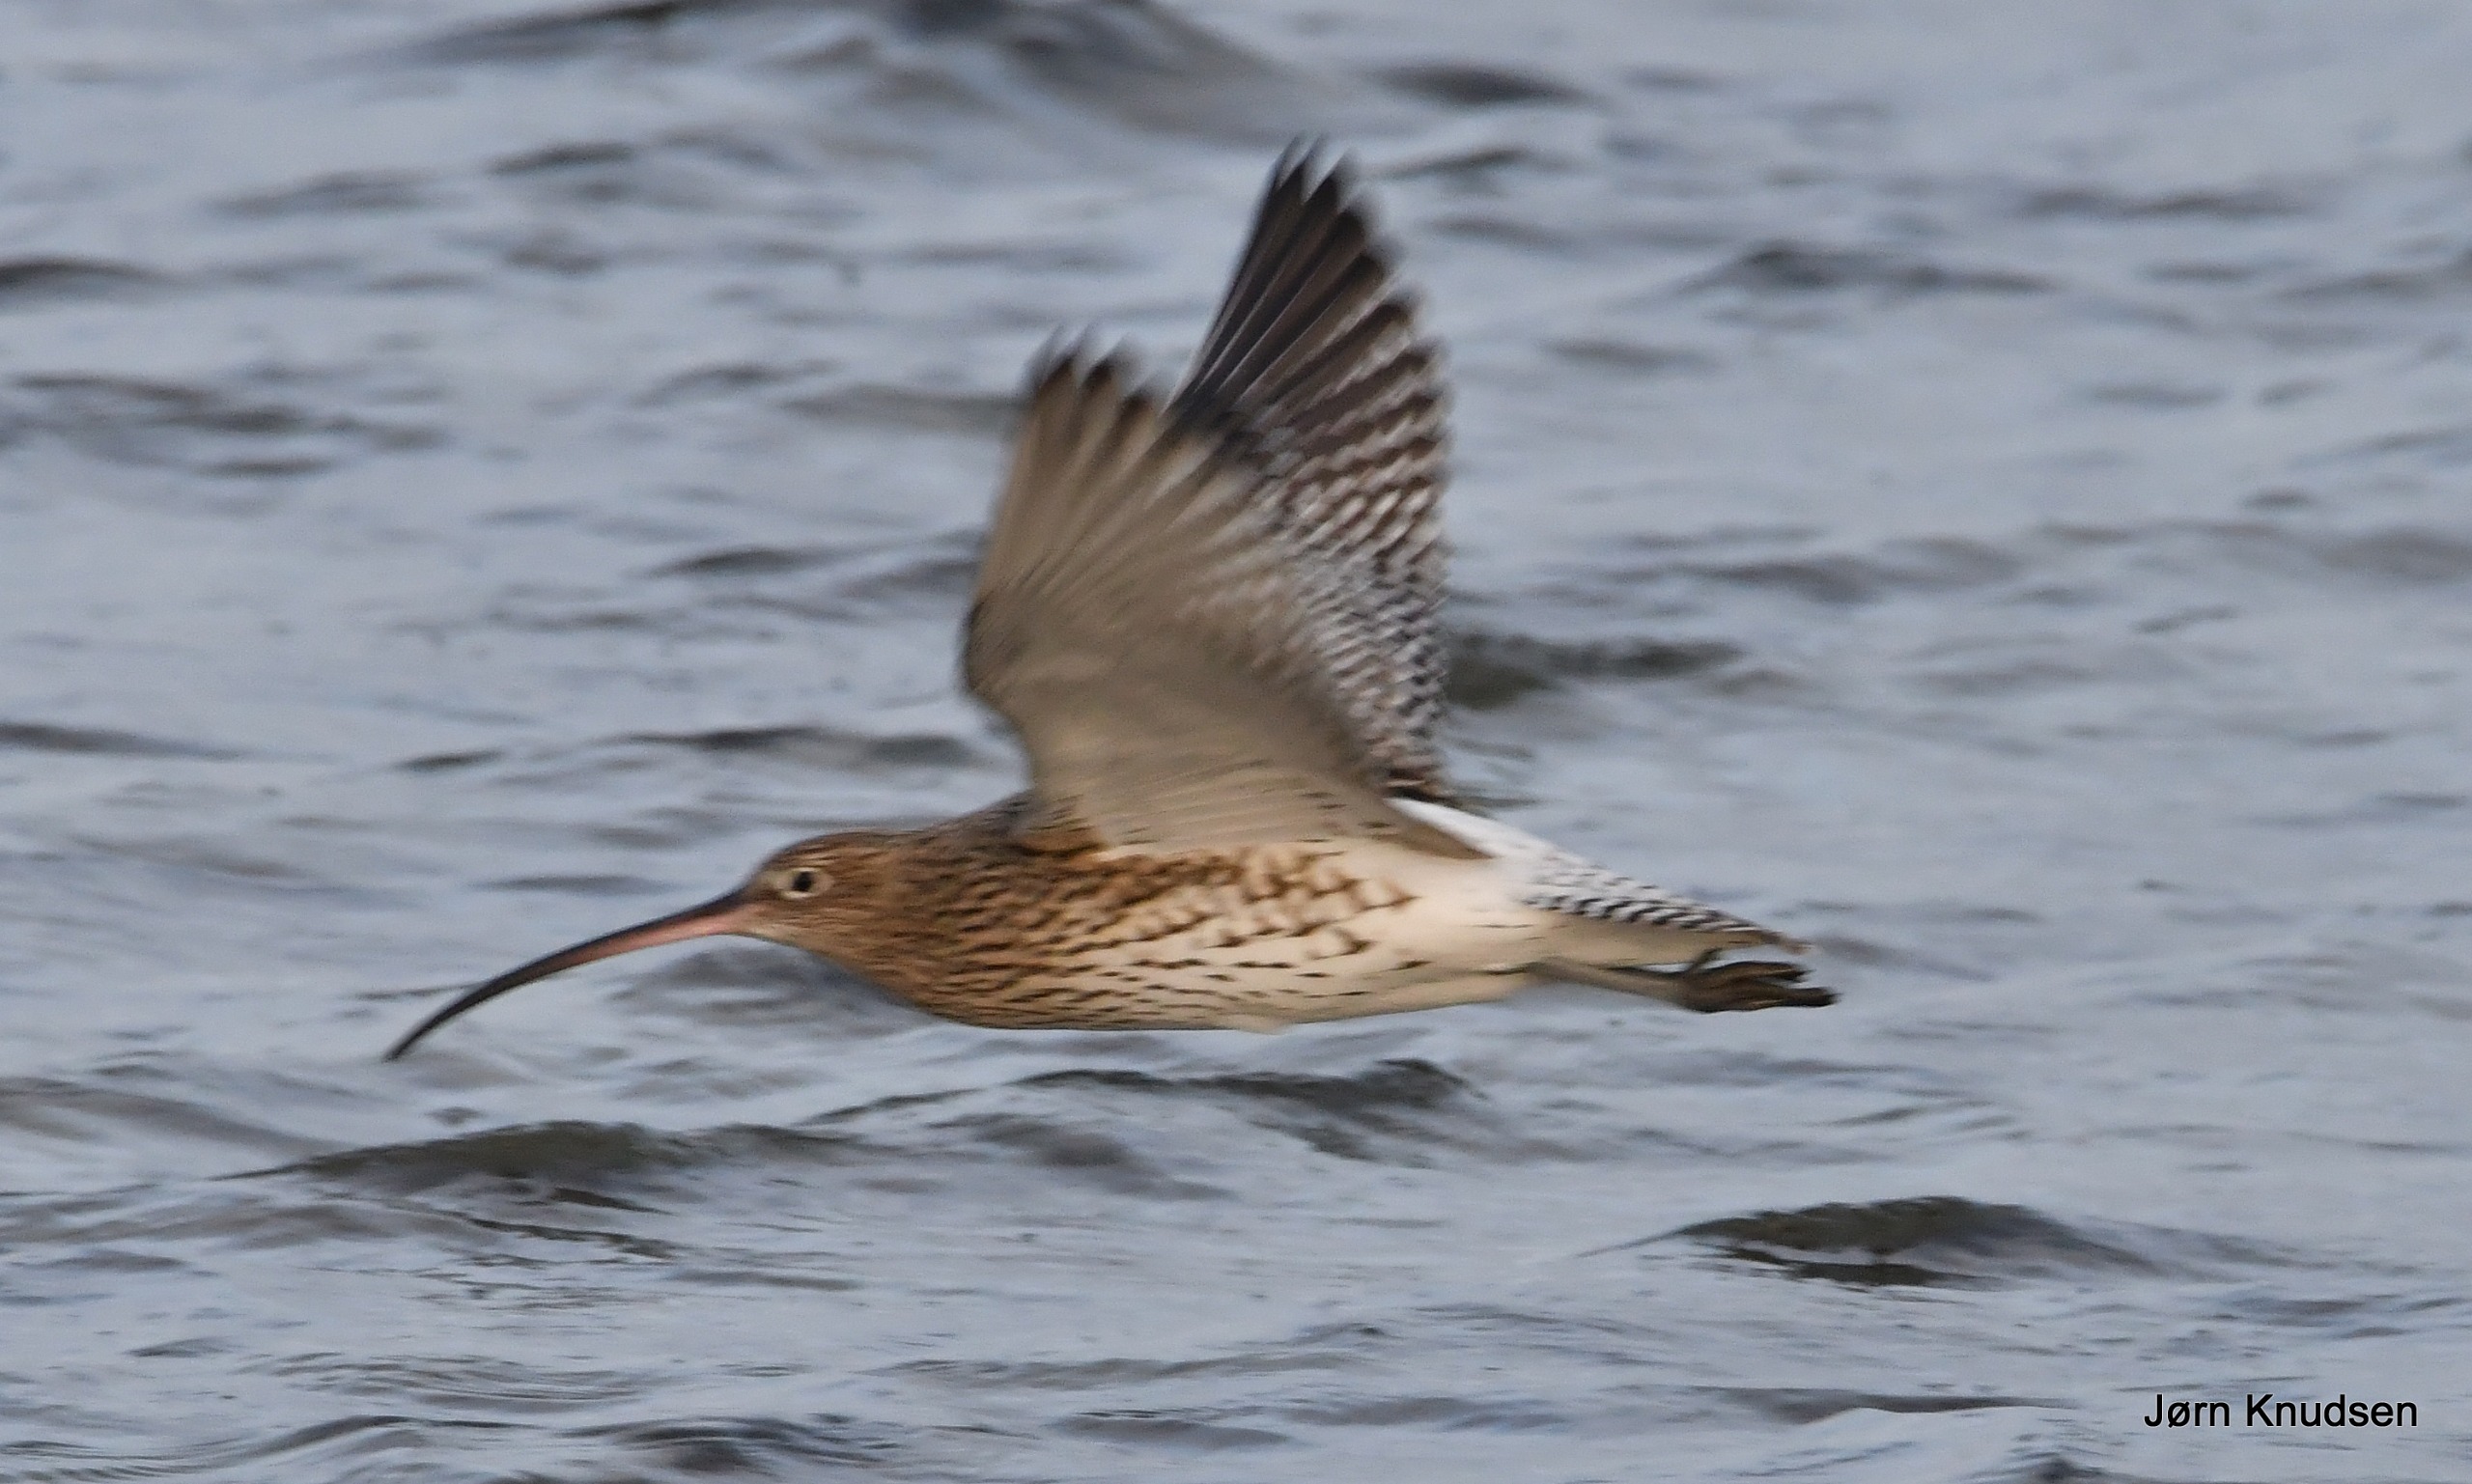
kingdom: Animalia
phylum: Chordata
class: Aves
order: Charadriiformes
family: Scolopacidae
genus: Numenius
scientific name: Numenius arquata
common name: Storspove
